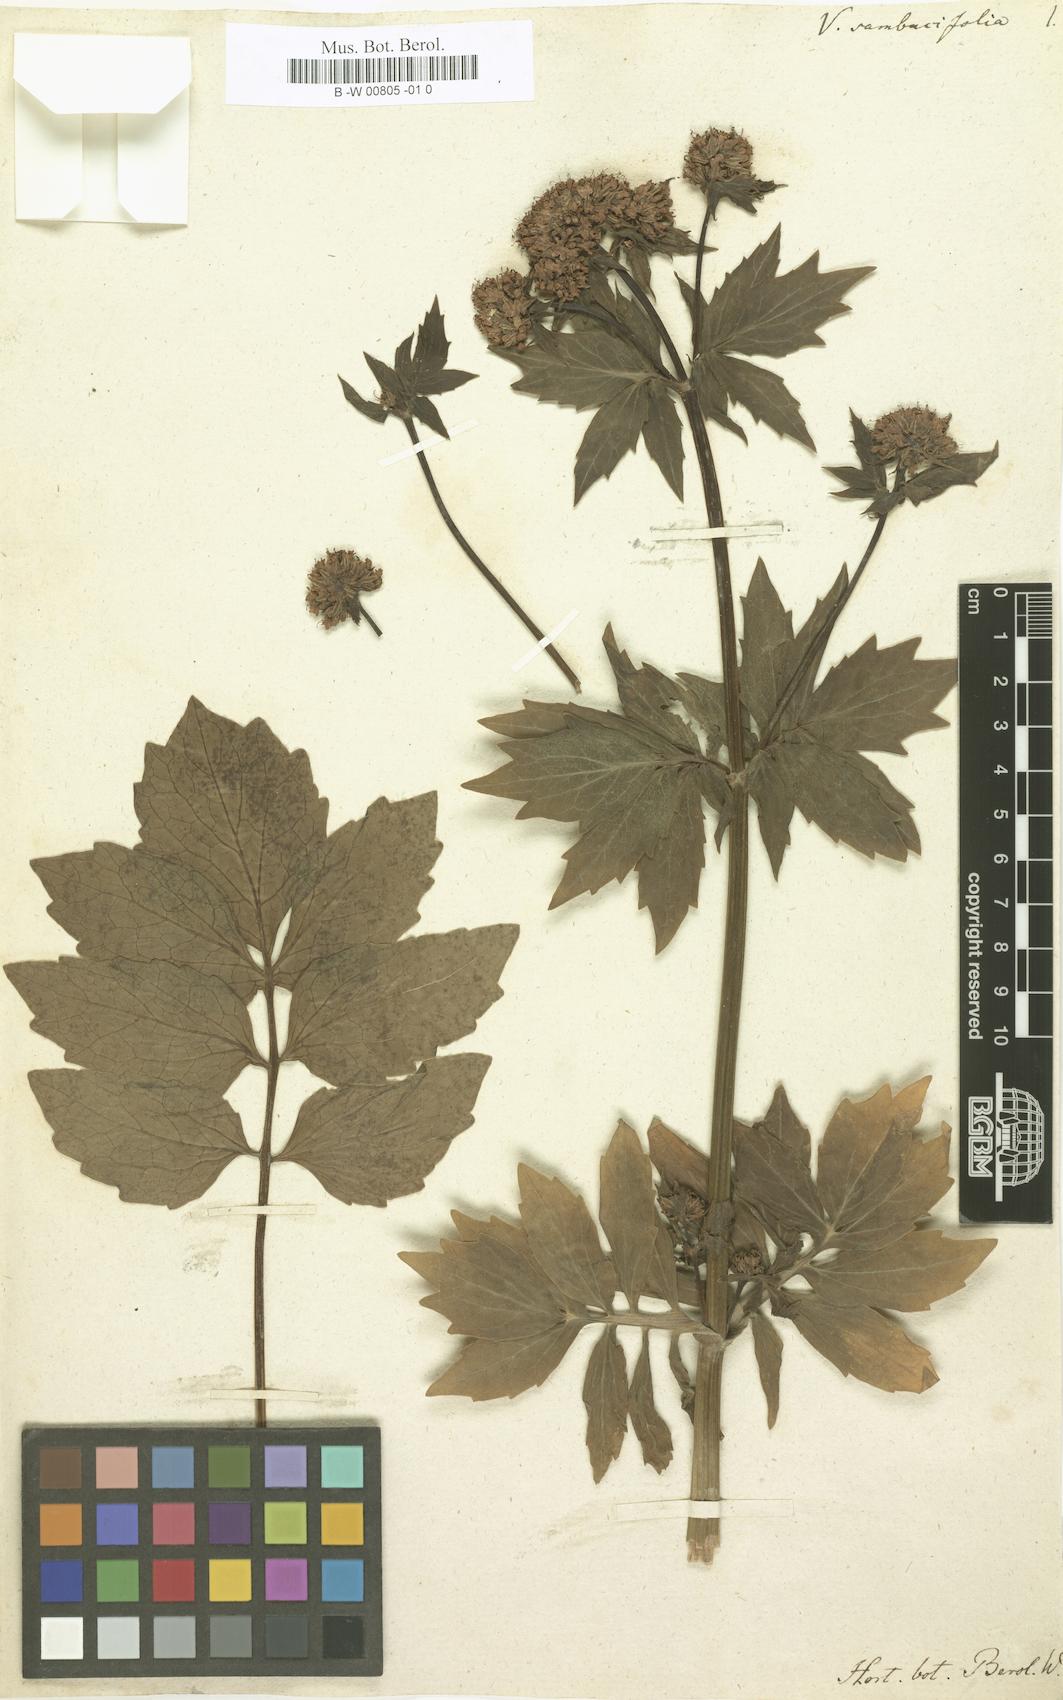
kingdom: Plantae
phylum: Tracheophyta
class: Magnoliopsida
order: Dipsacales
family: Caprifoliaceae
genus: Valeriana
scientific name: Valeriana sambucifolia
